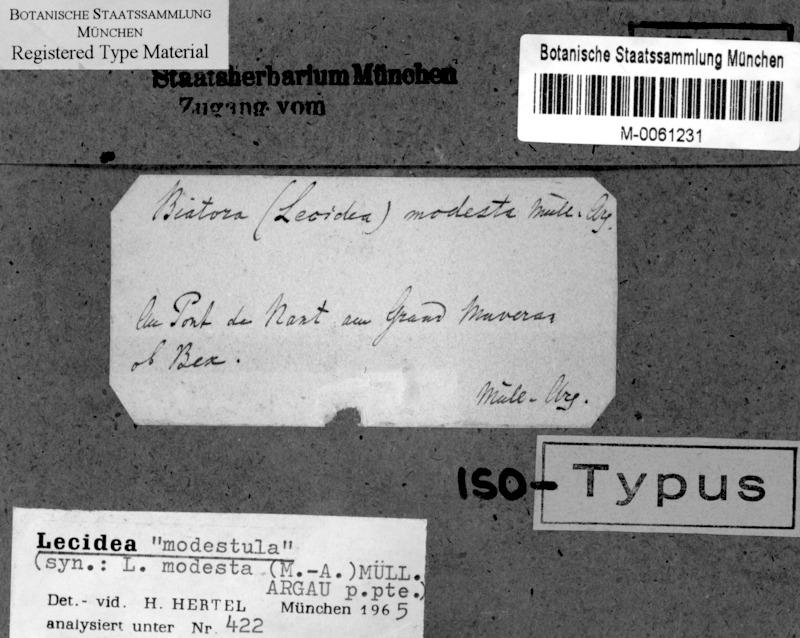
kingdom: Fungi
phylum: Ascomycota
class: Lecanoromycetes
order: Lecanorales
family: Catillariaceae
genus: Catillaria
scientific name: Catillaria modesta
